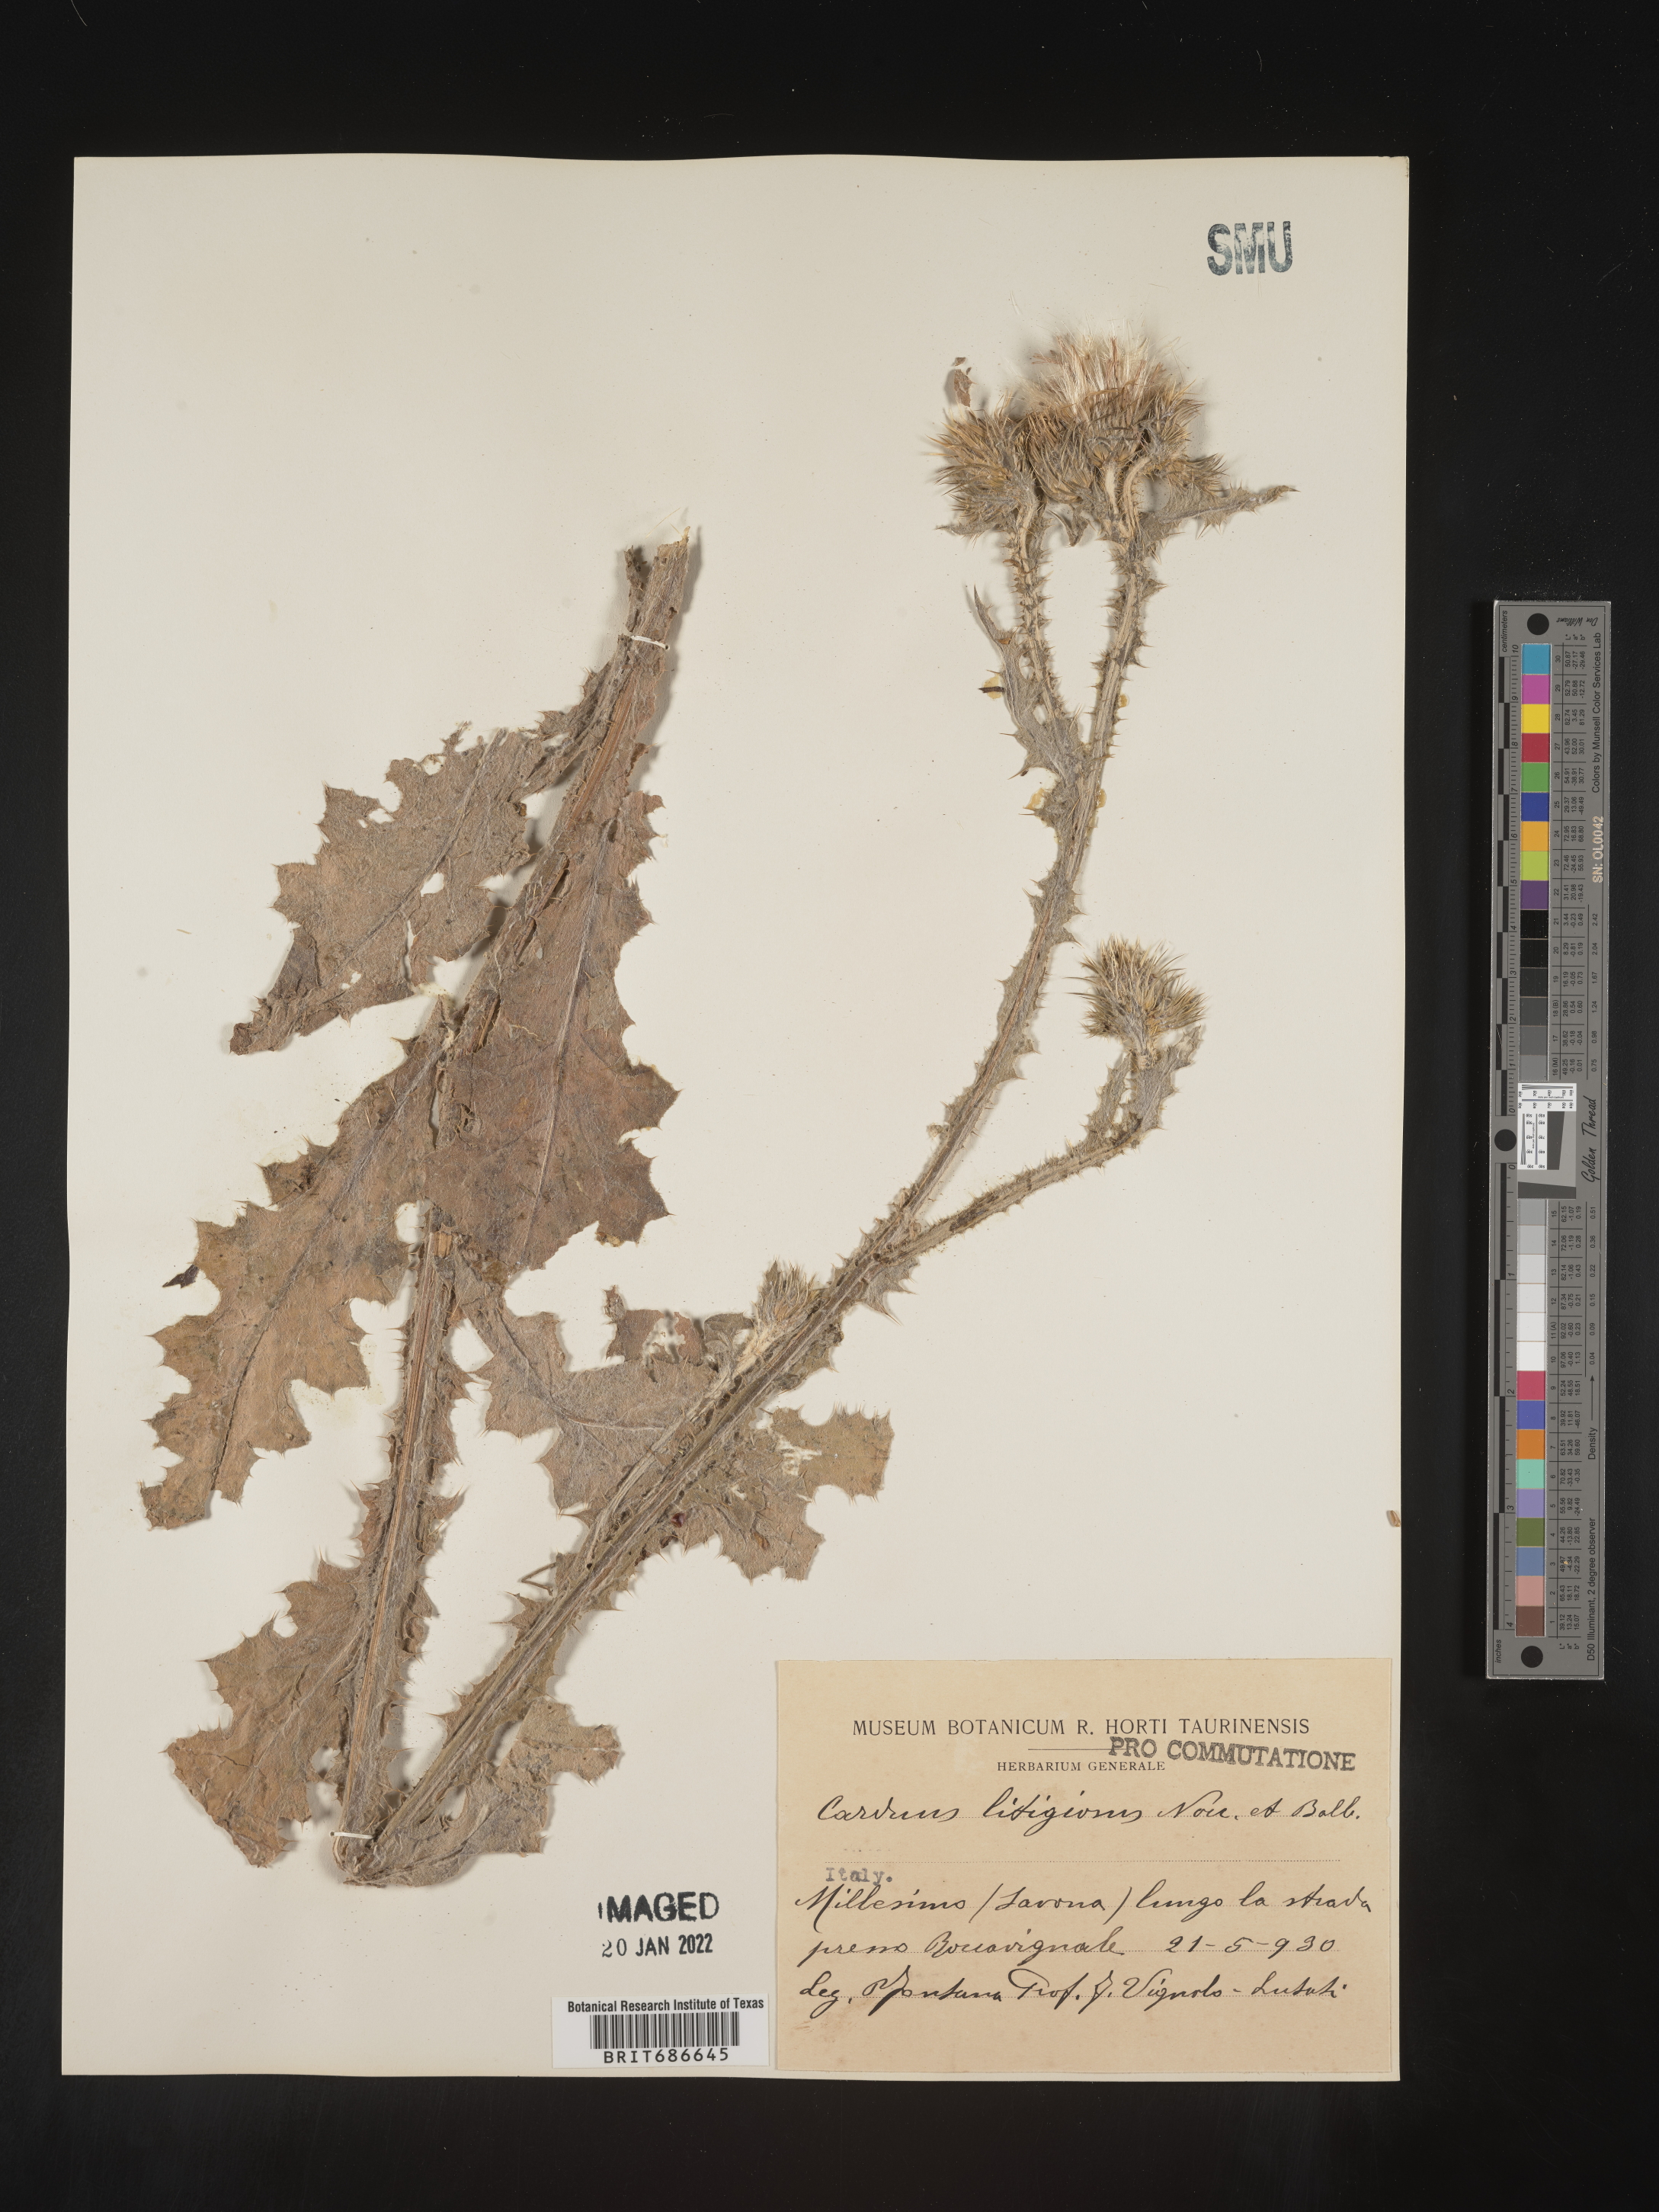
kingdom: Plantae
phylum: Tracheophyta
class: Magnoliopsida
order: Asterales
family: Asteraceae
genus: Carduus
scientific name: Carduus
